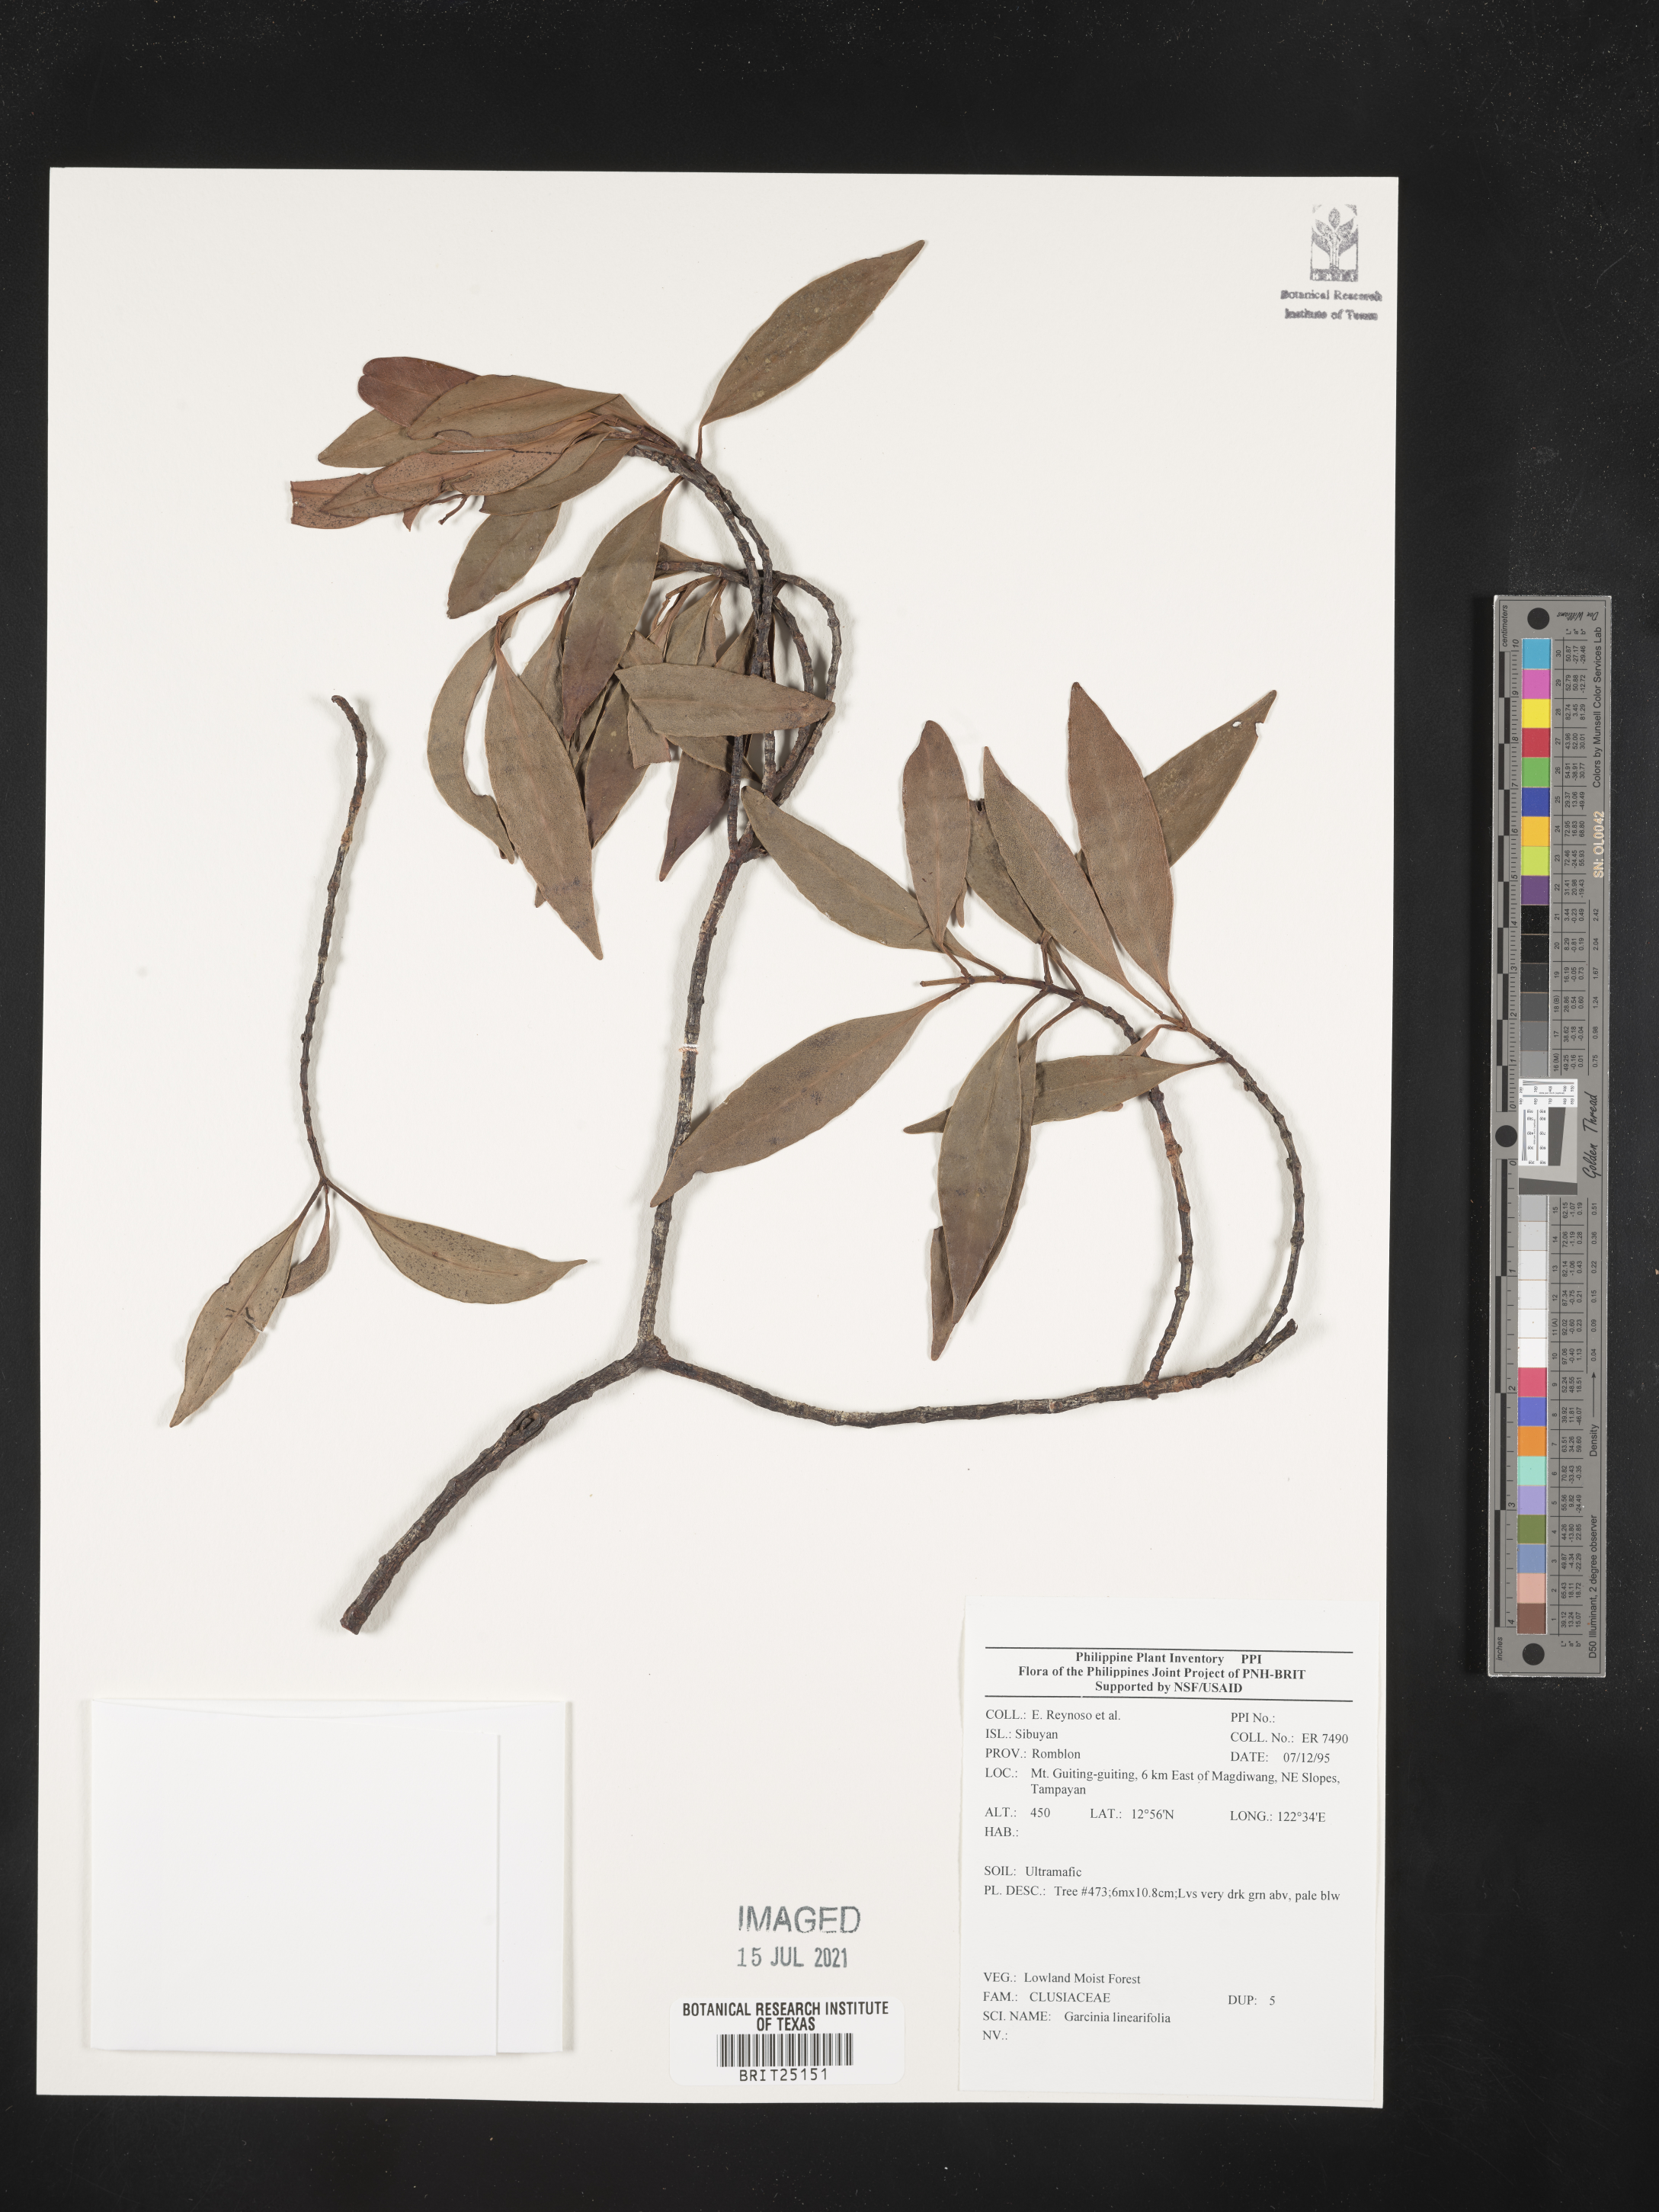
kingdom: Plantae
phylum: Tracheophyta
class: Magnoliopsida
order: Malpighiales
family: Clusiaceae
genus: Garcinia
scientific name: Garcinia linearifolia
